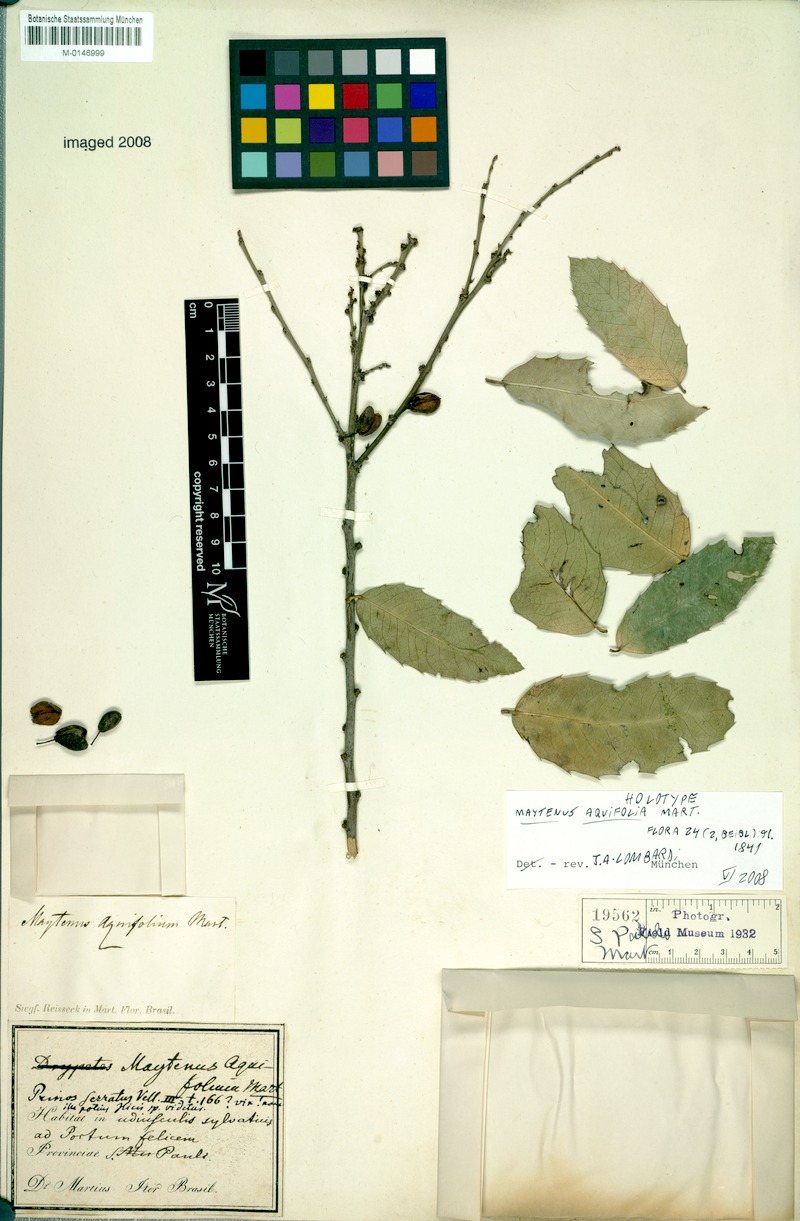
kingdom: Plantae
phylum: Tracheophyta
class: Magnoliopsida
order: Celastrales
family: Celastraceae
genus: Monteverdia
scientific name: Monteverdia aquifolium
